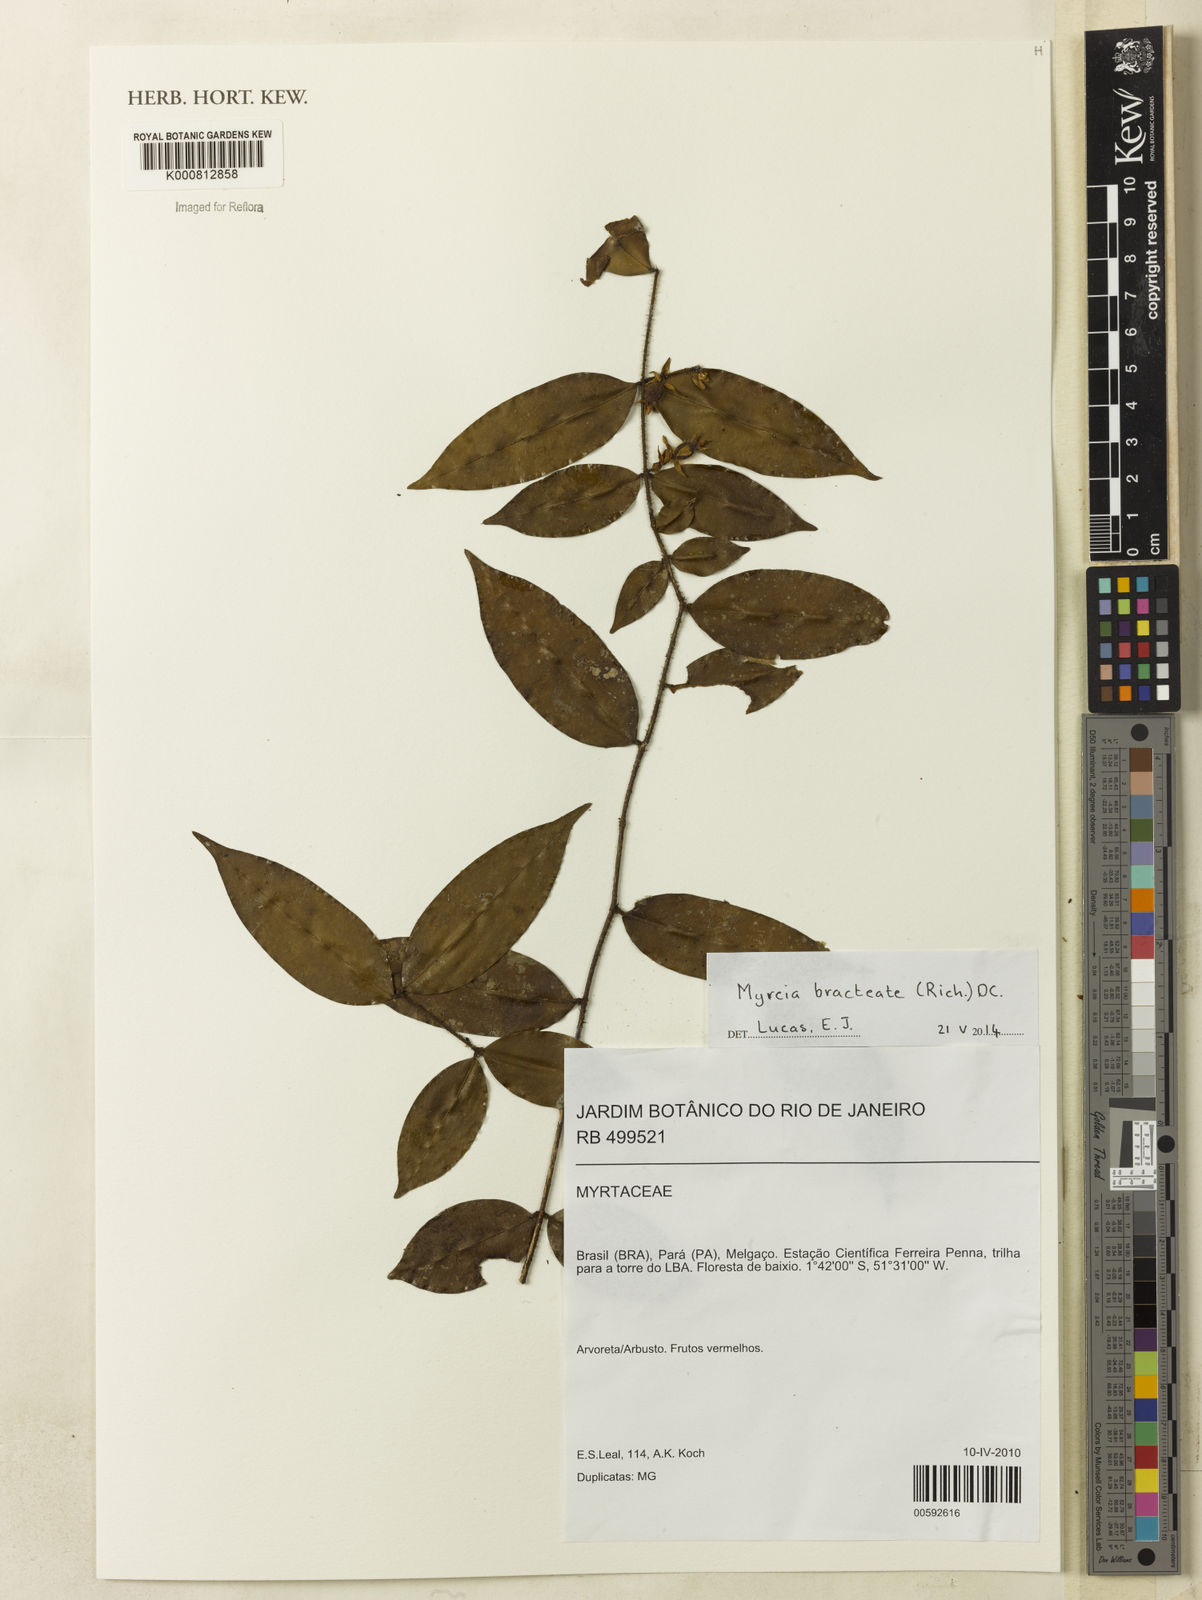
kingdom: Plantae
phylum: Tracheophyta
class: Magnoliopsida
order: Myrtales
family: Myrtaceae
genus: Myrcia
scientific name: Myrcia
